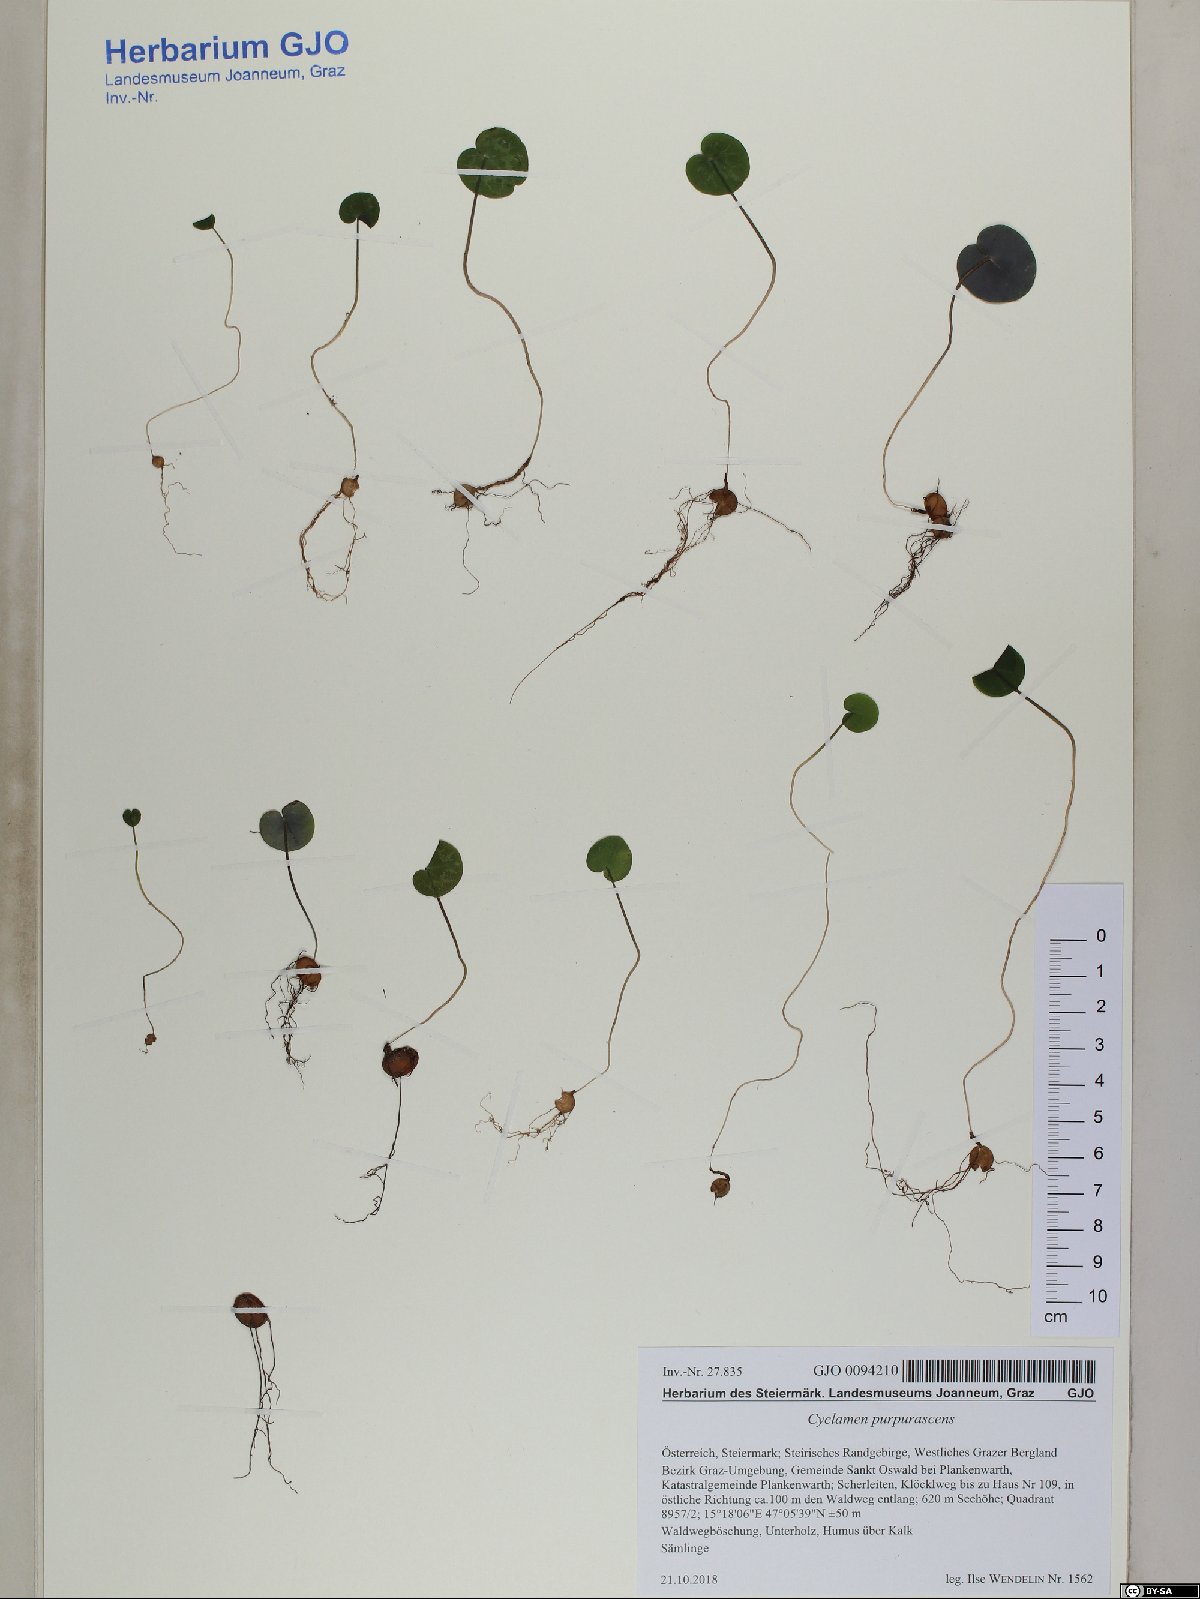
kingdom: Plantae
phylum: Tracheophyta
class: Magnoliopsida
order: Ericales
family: Primulaceae
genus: Cyclamen
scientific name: Cyclamen purpurascens
